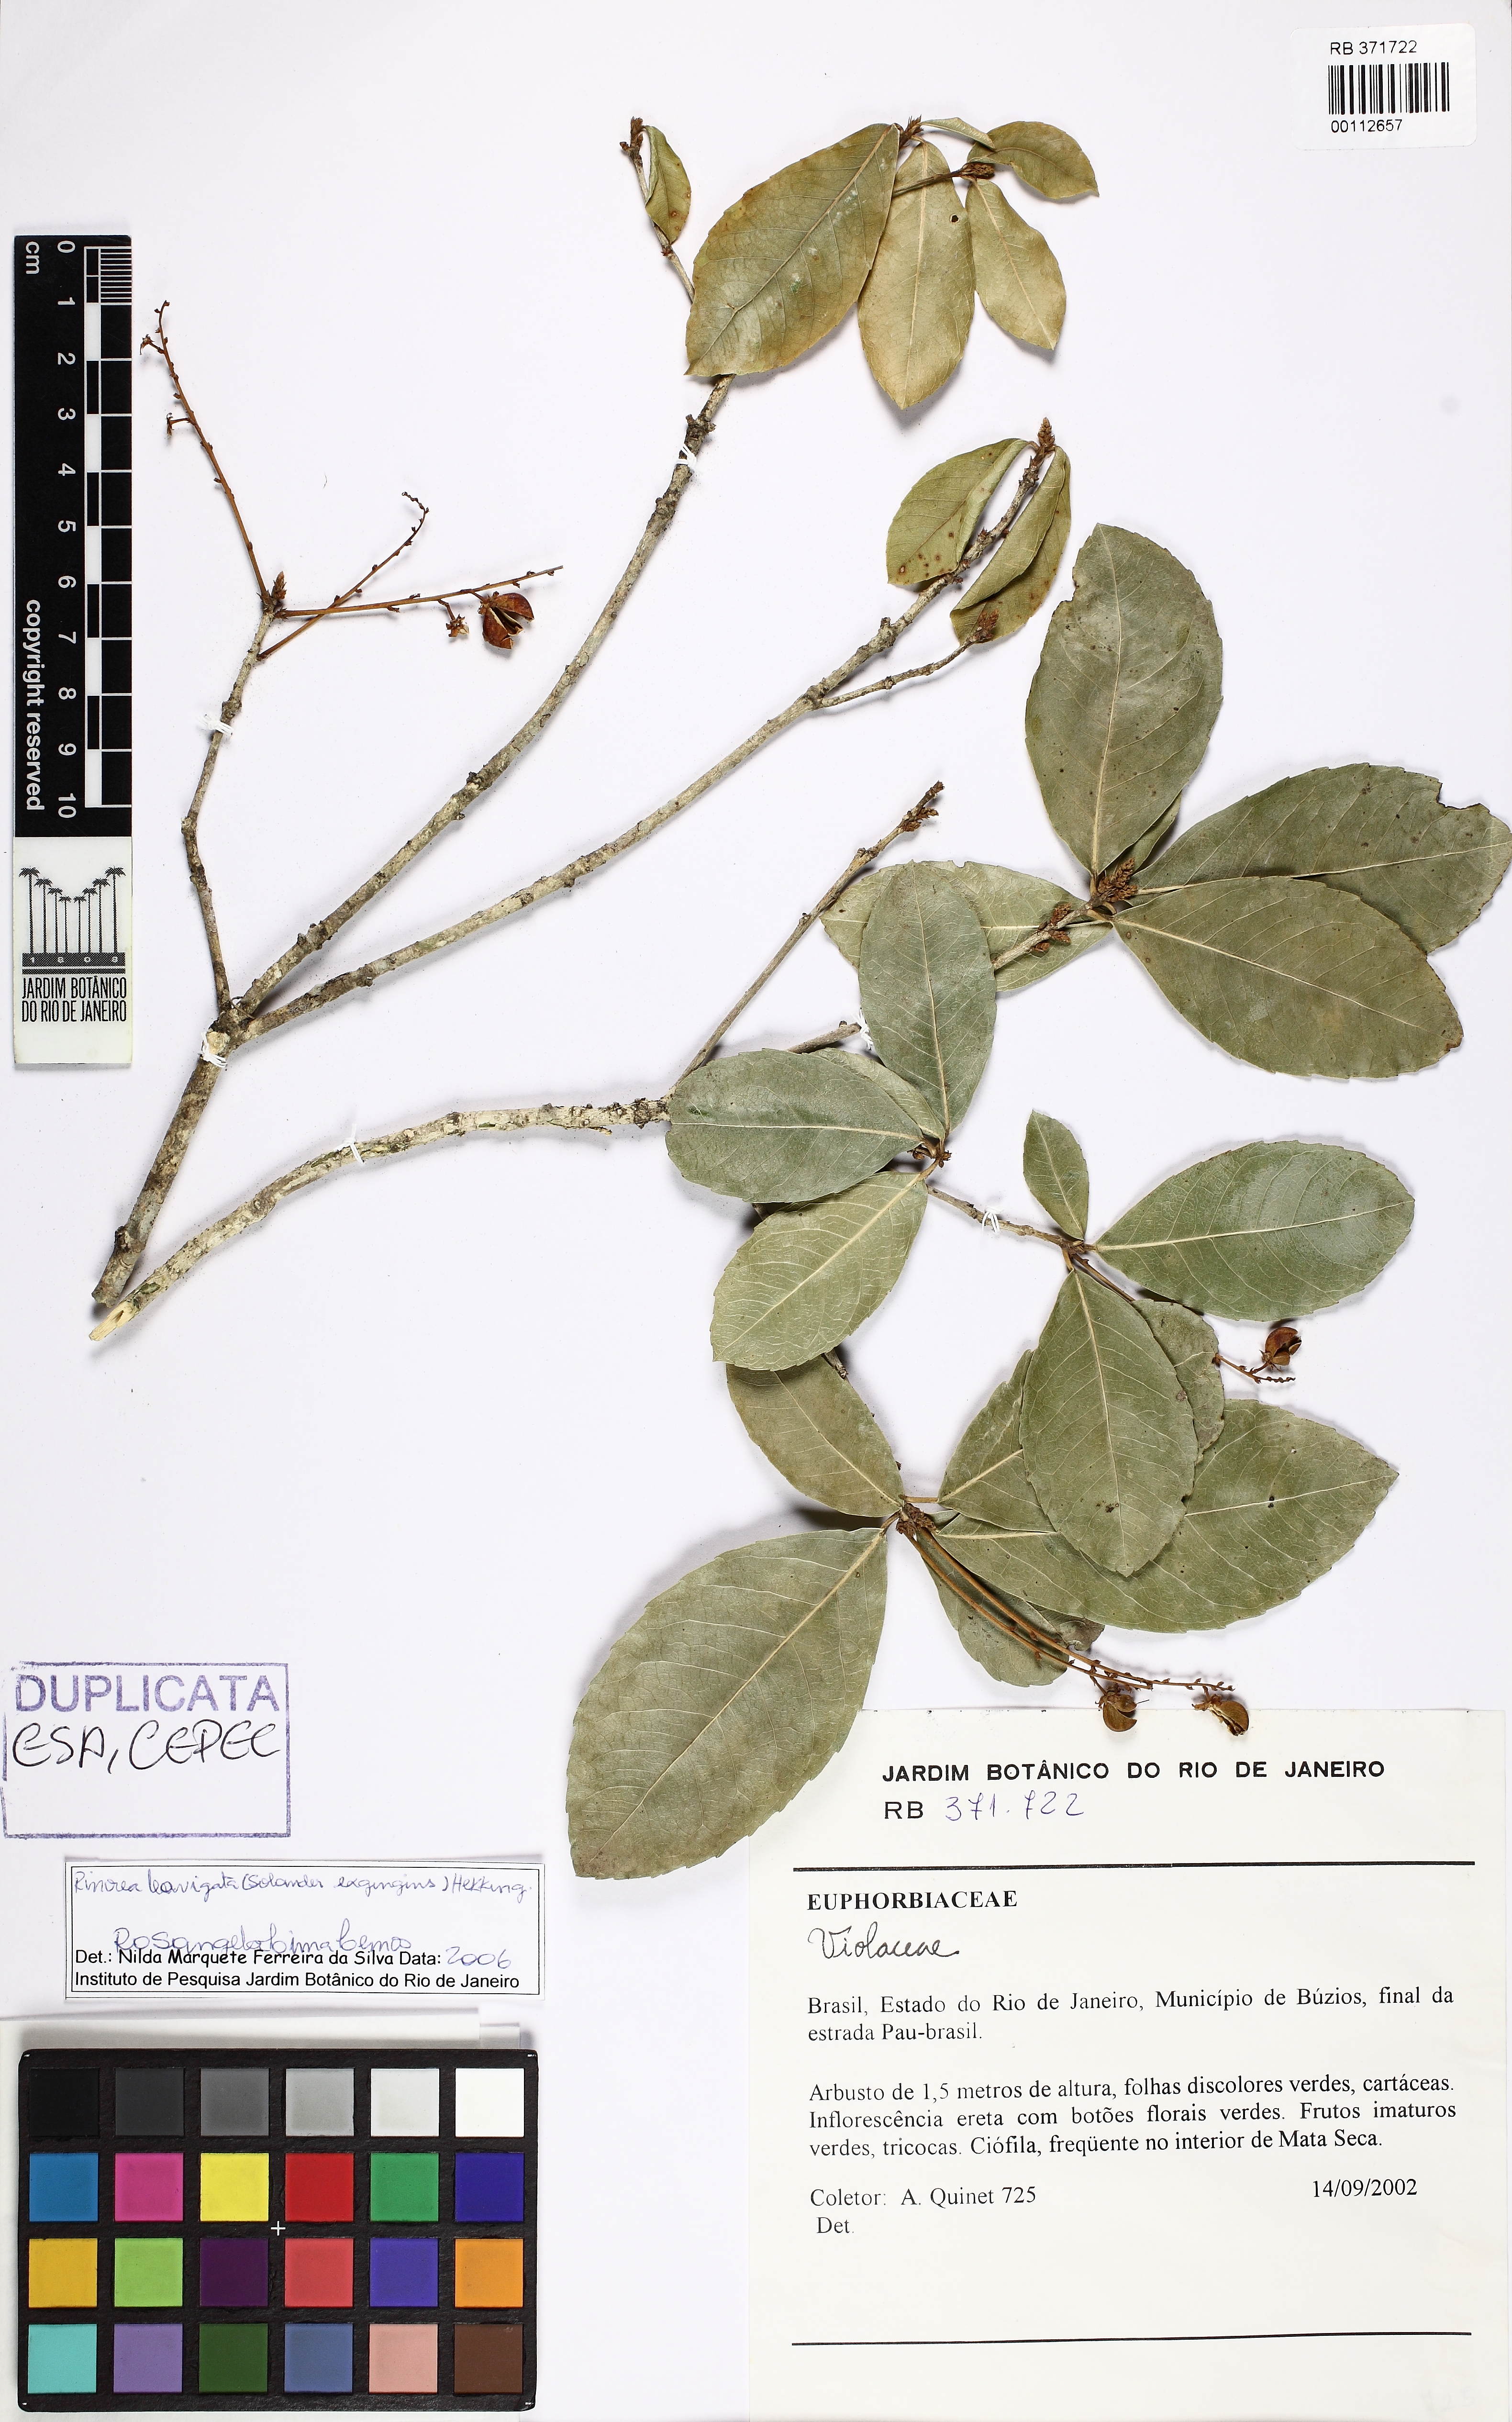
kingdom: Plantae
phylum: Tracheophyta
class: Magnoliopsida
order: Malpighiales
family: Violaceae
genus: Rinorea
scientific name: Rinorea laevigata
